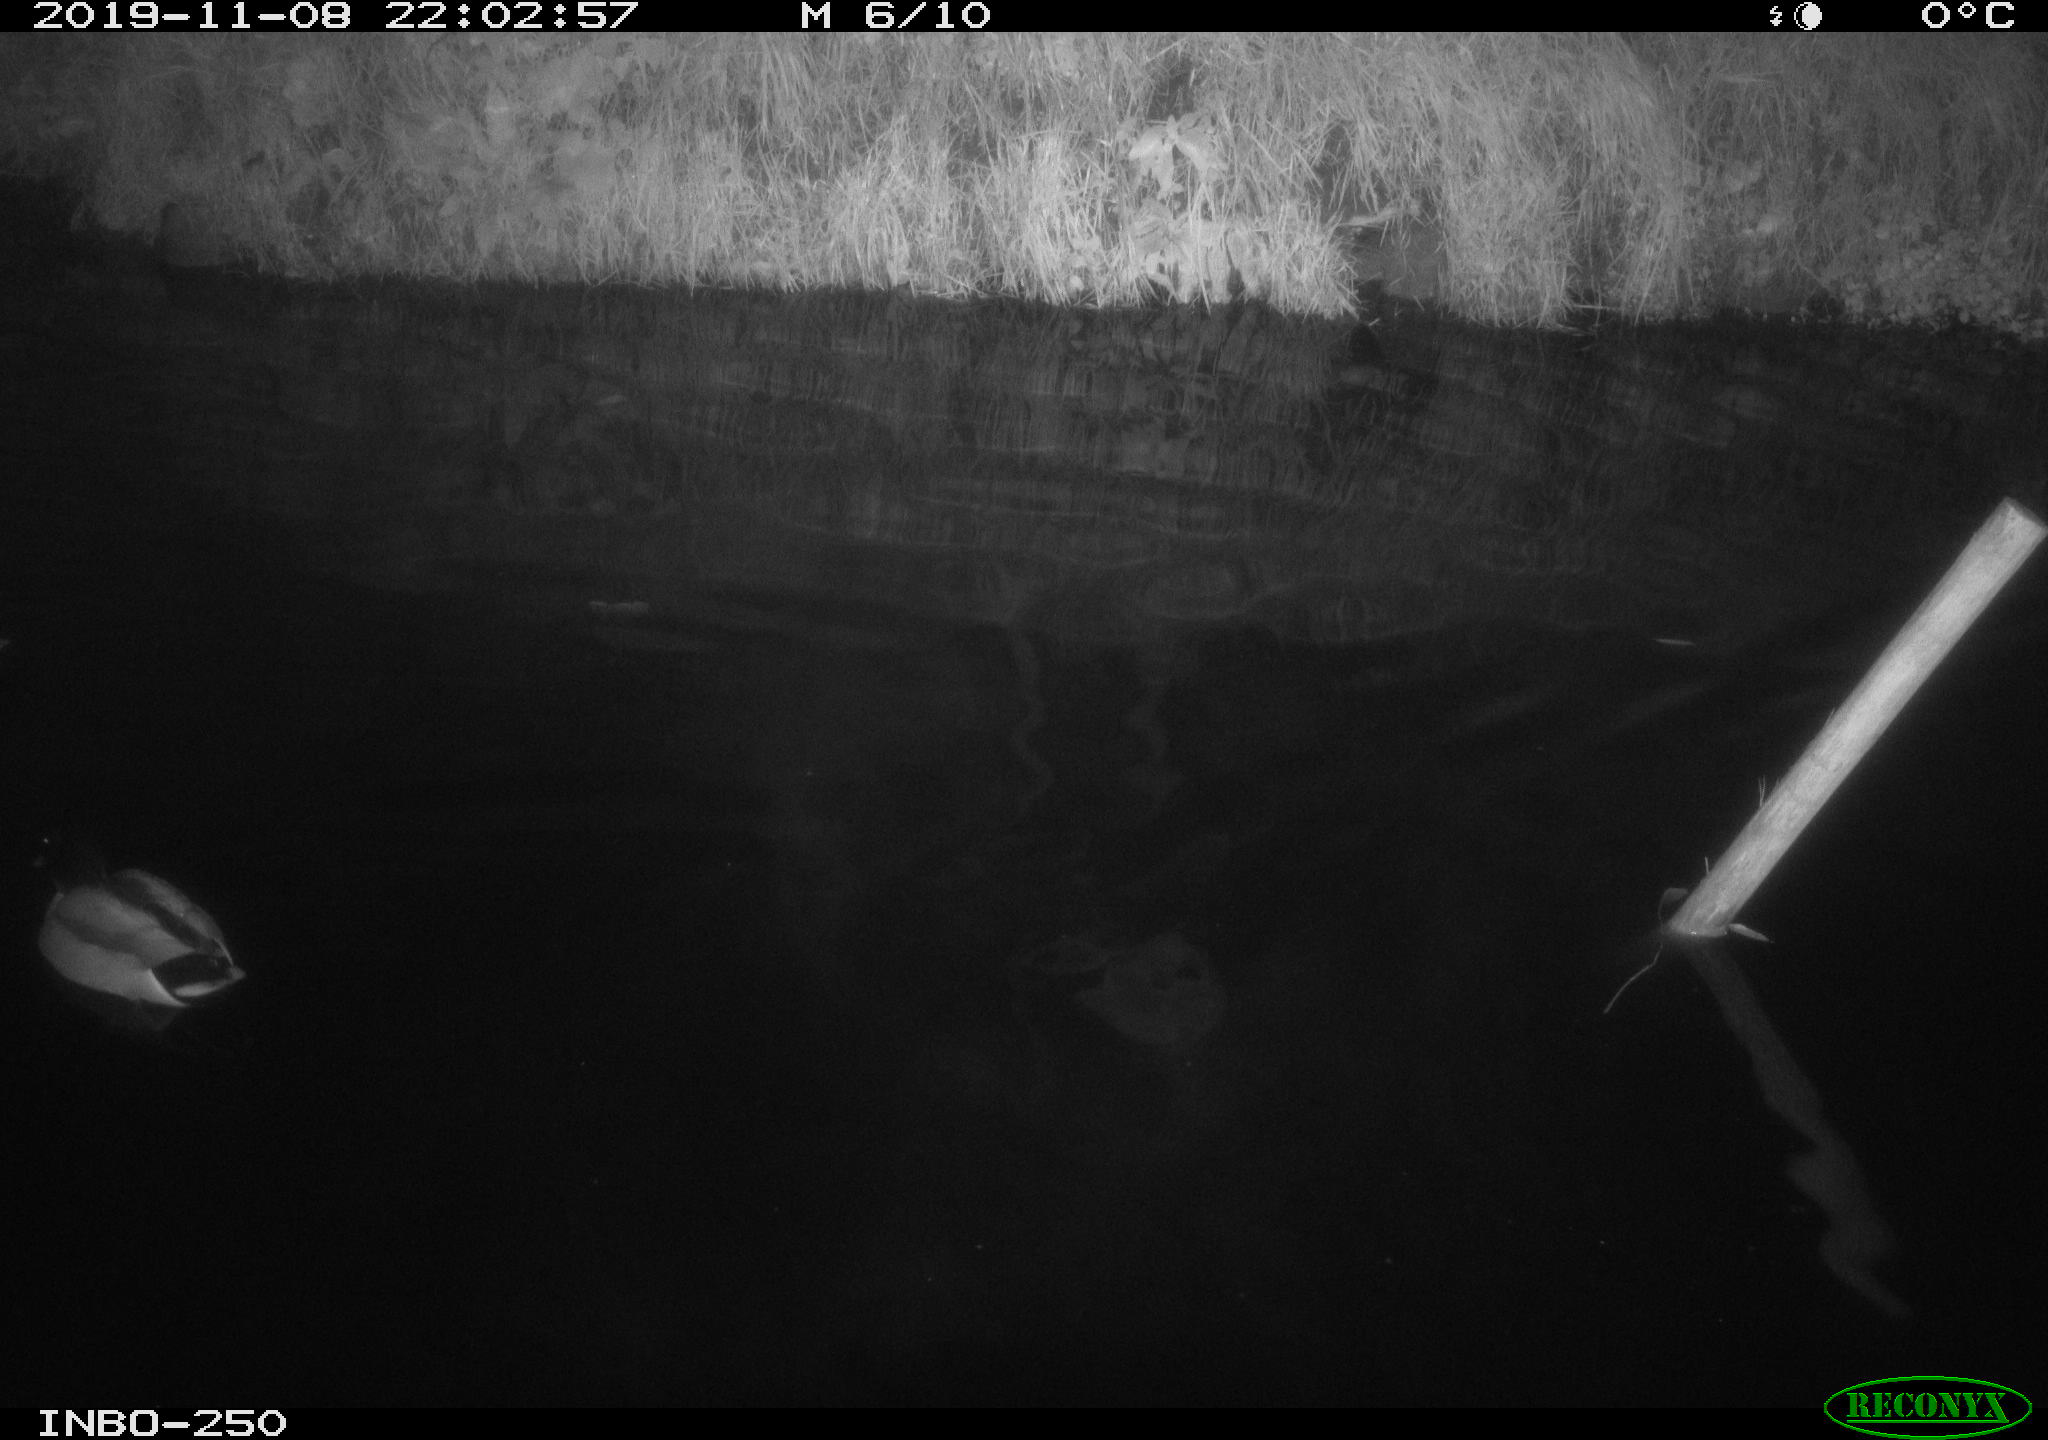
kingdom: Animalia
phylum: Chordata
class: Aves
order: Anseriformes
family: Anatidae
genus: Anas
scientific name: Anas platyrhynchos
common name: Mallard
